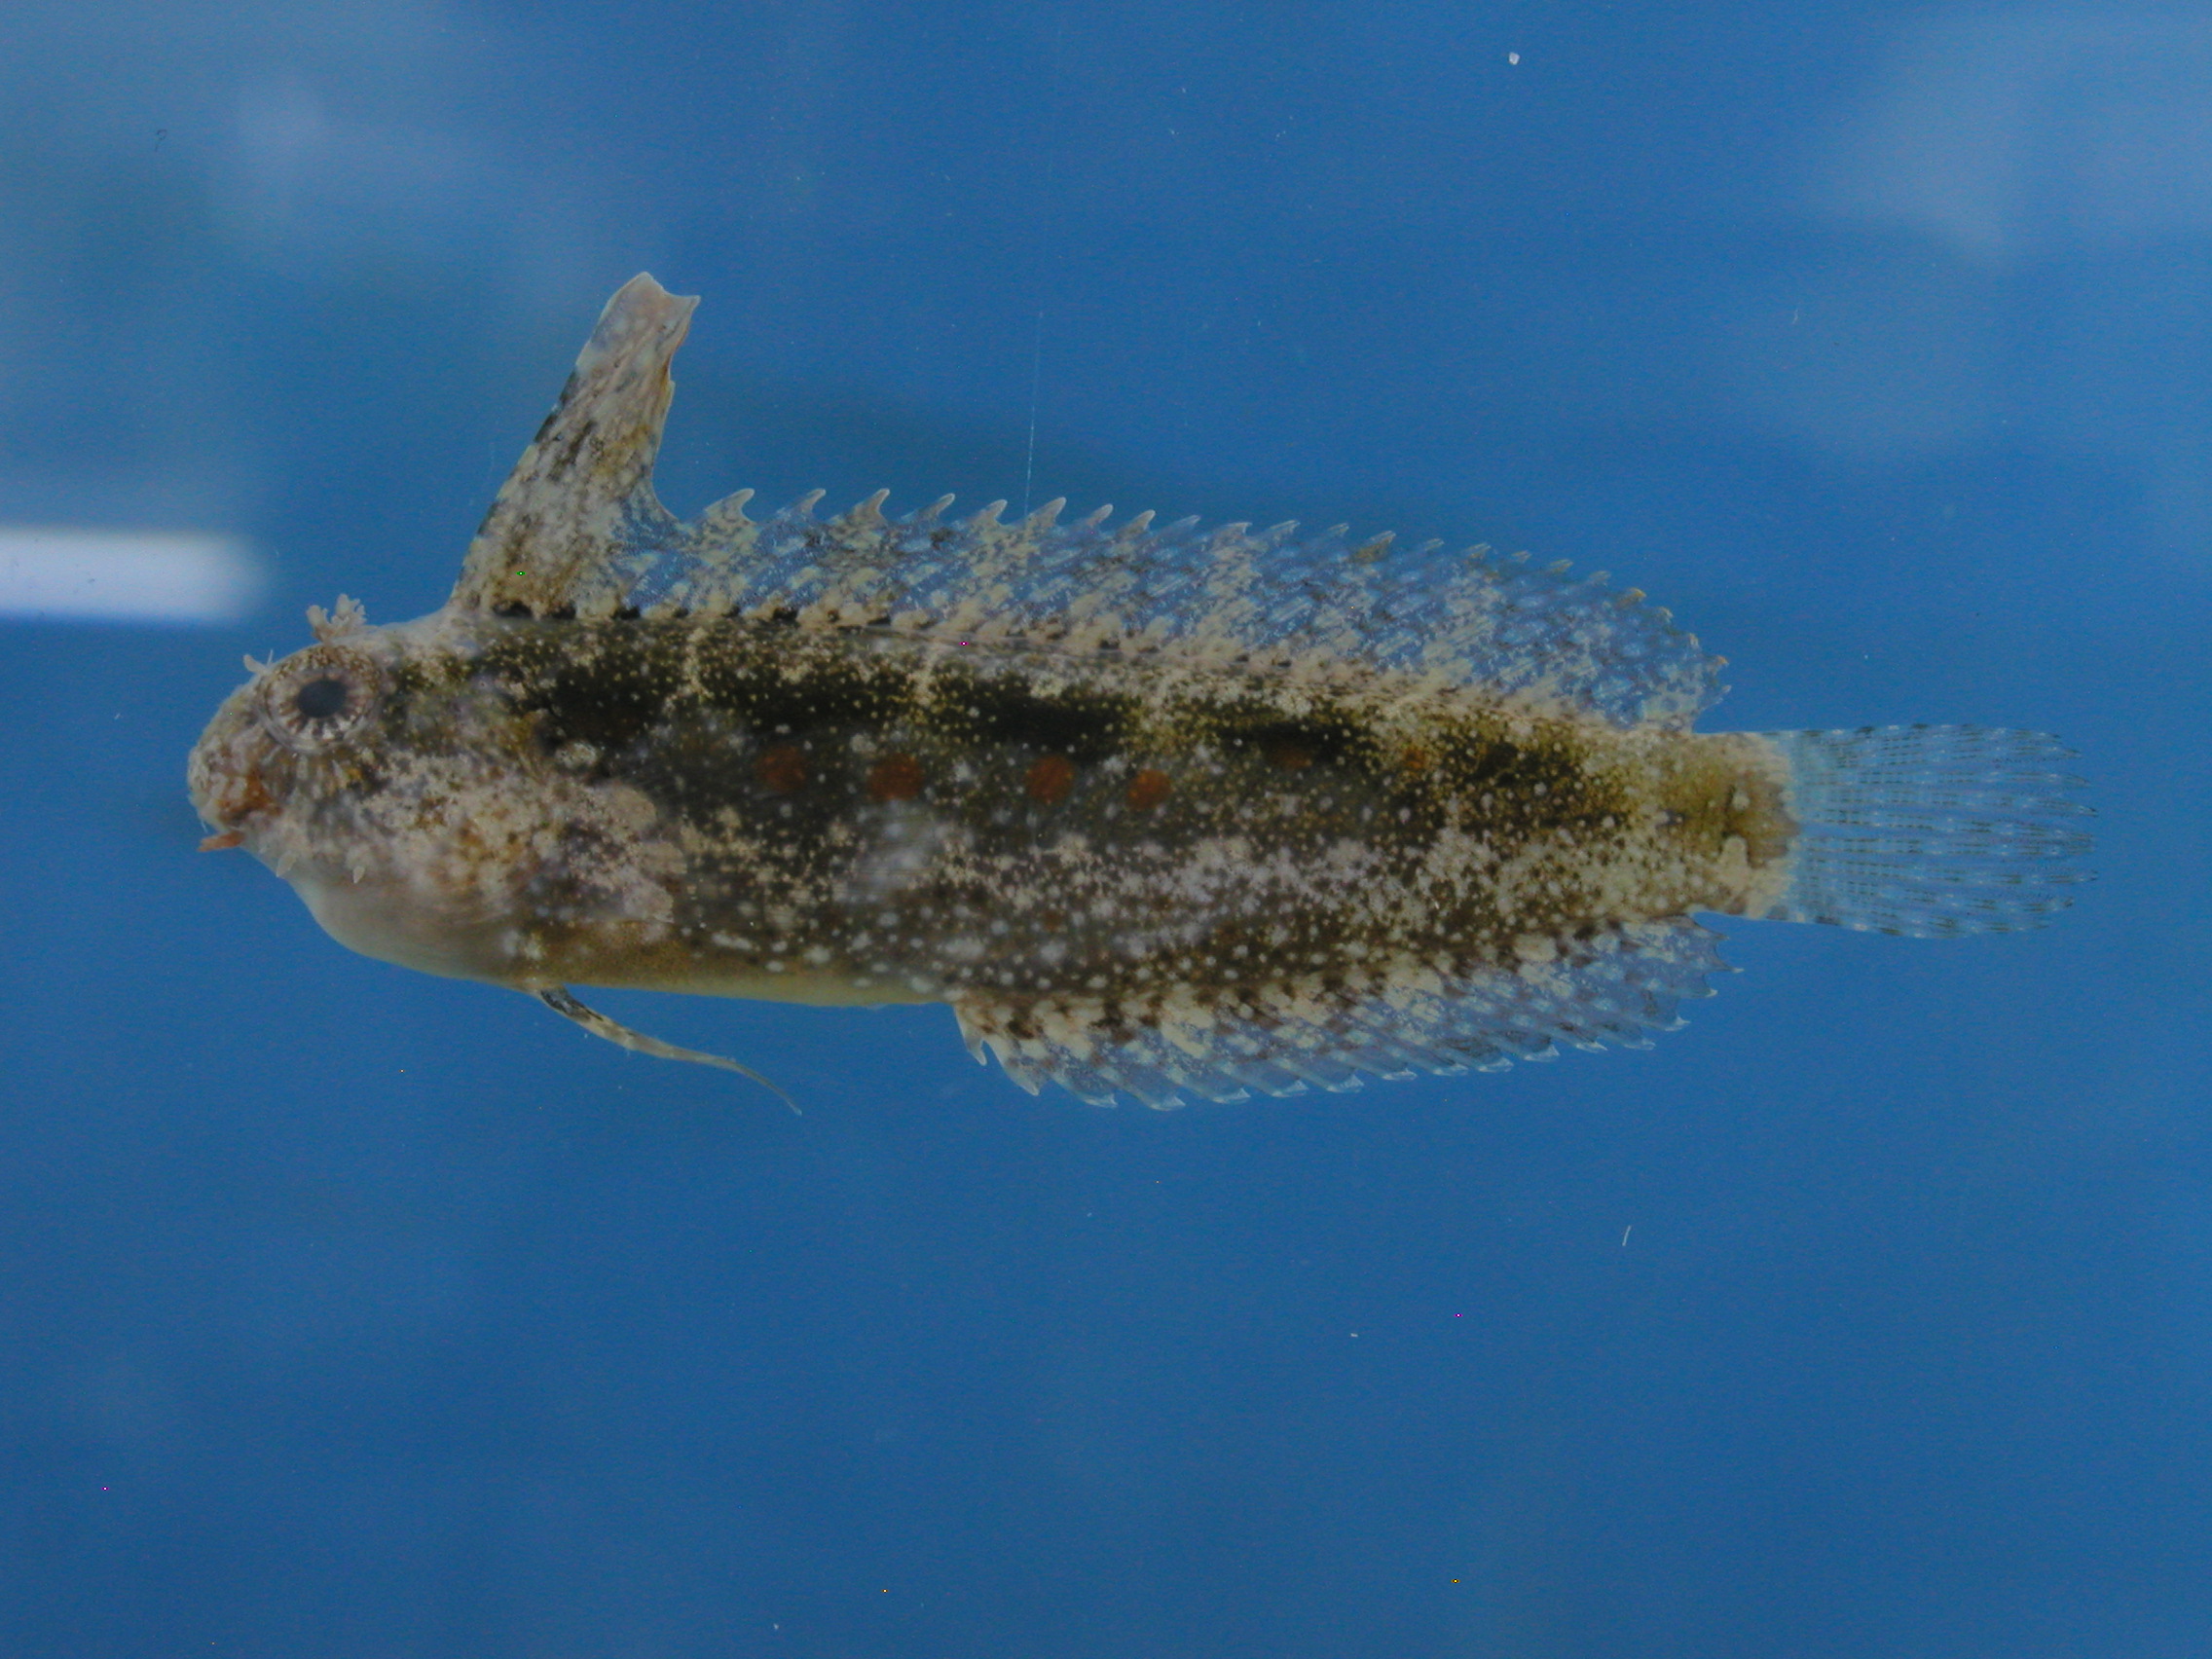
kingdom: Animalia
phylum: Chordata
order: Perciformes
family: Blenniidae
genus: Petroscirtes
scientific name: Petroscirtes mitratus
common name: Floral blenny
